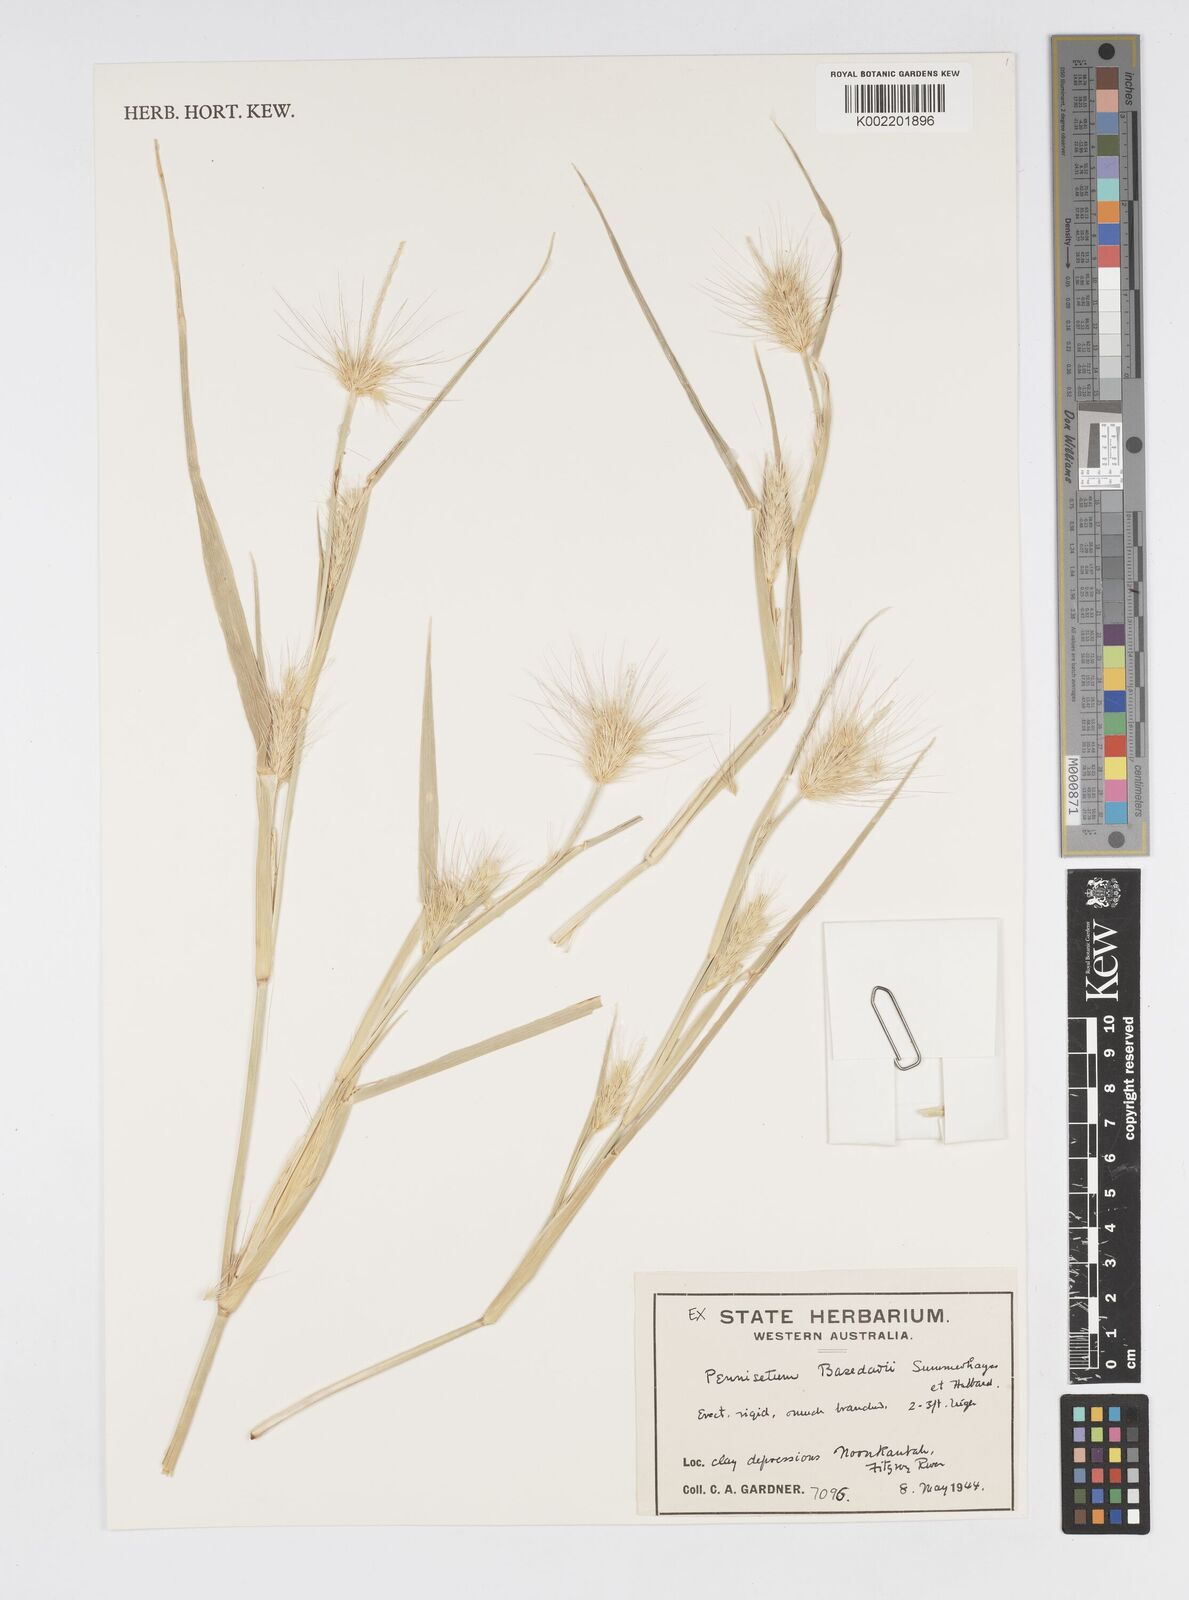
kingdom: Plantae
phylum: Tracheophyta
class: Liliopsida
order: Poales
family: Poaceae
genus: Cenchrus
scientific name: Cenchrus basedowii
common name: Asbestos grass
